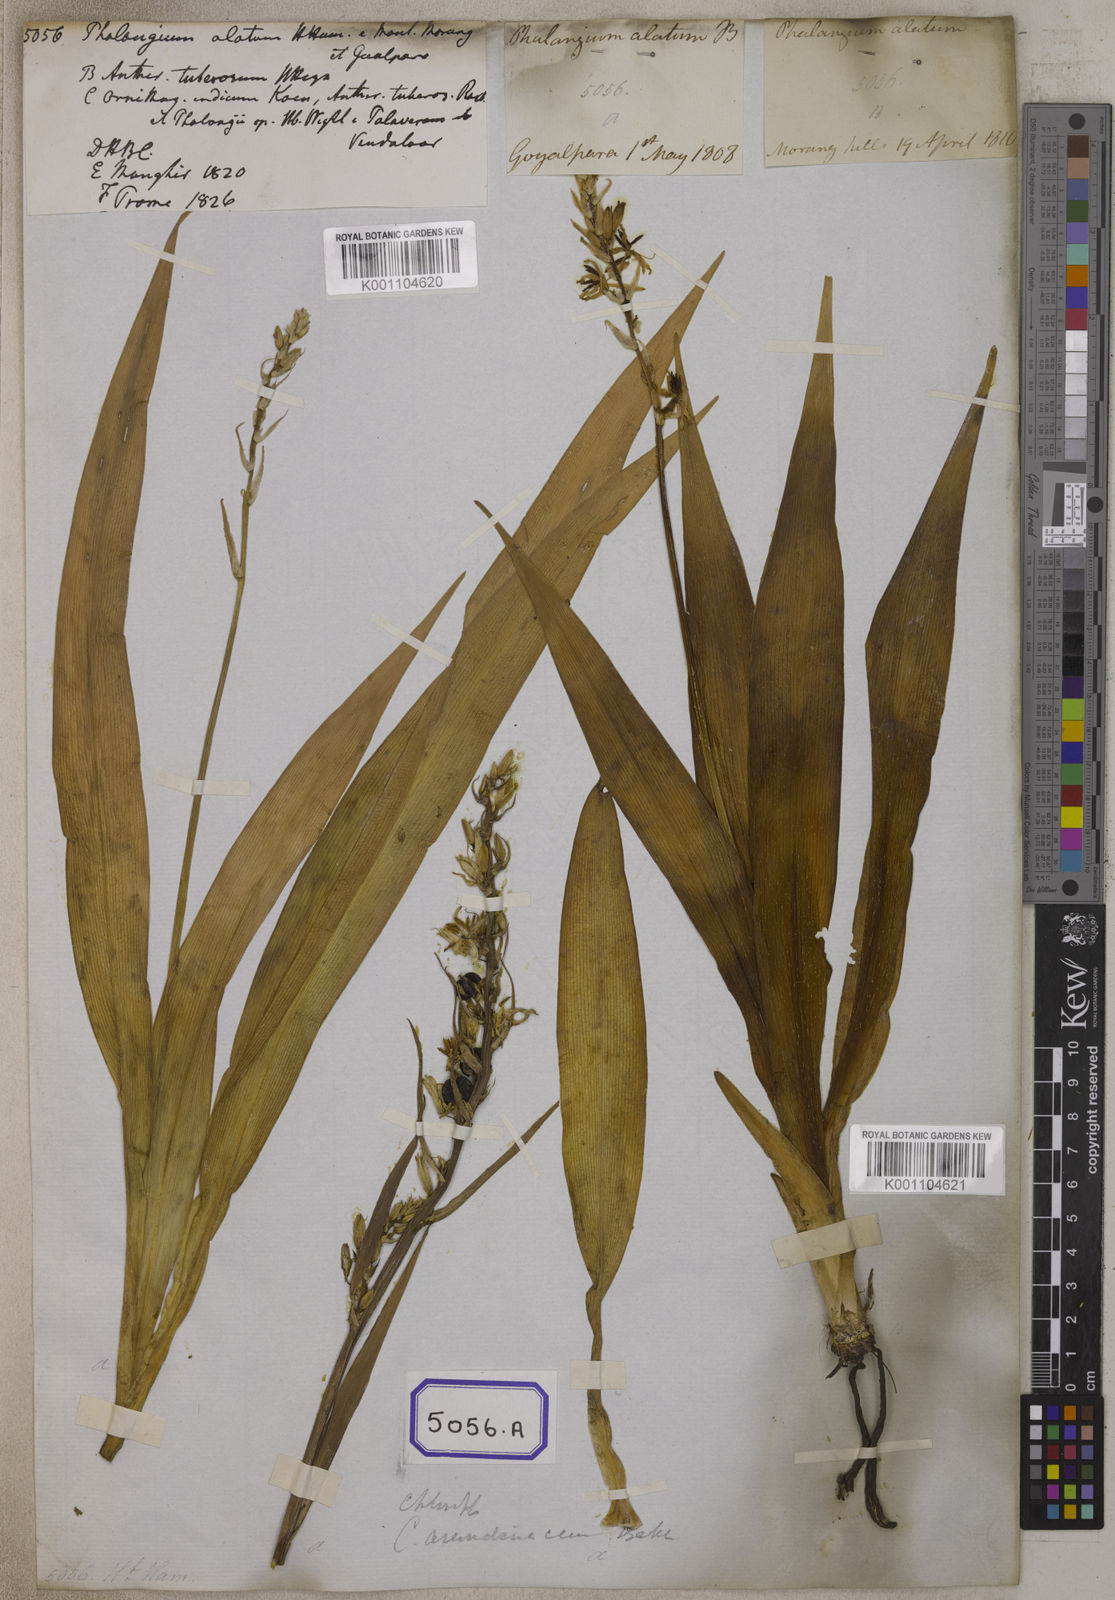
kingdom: Plantae
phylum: Tracheophyta
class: Liliopsida
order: Asparagales
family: Iridaceae
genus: Phalangium
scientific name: Phalangium
